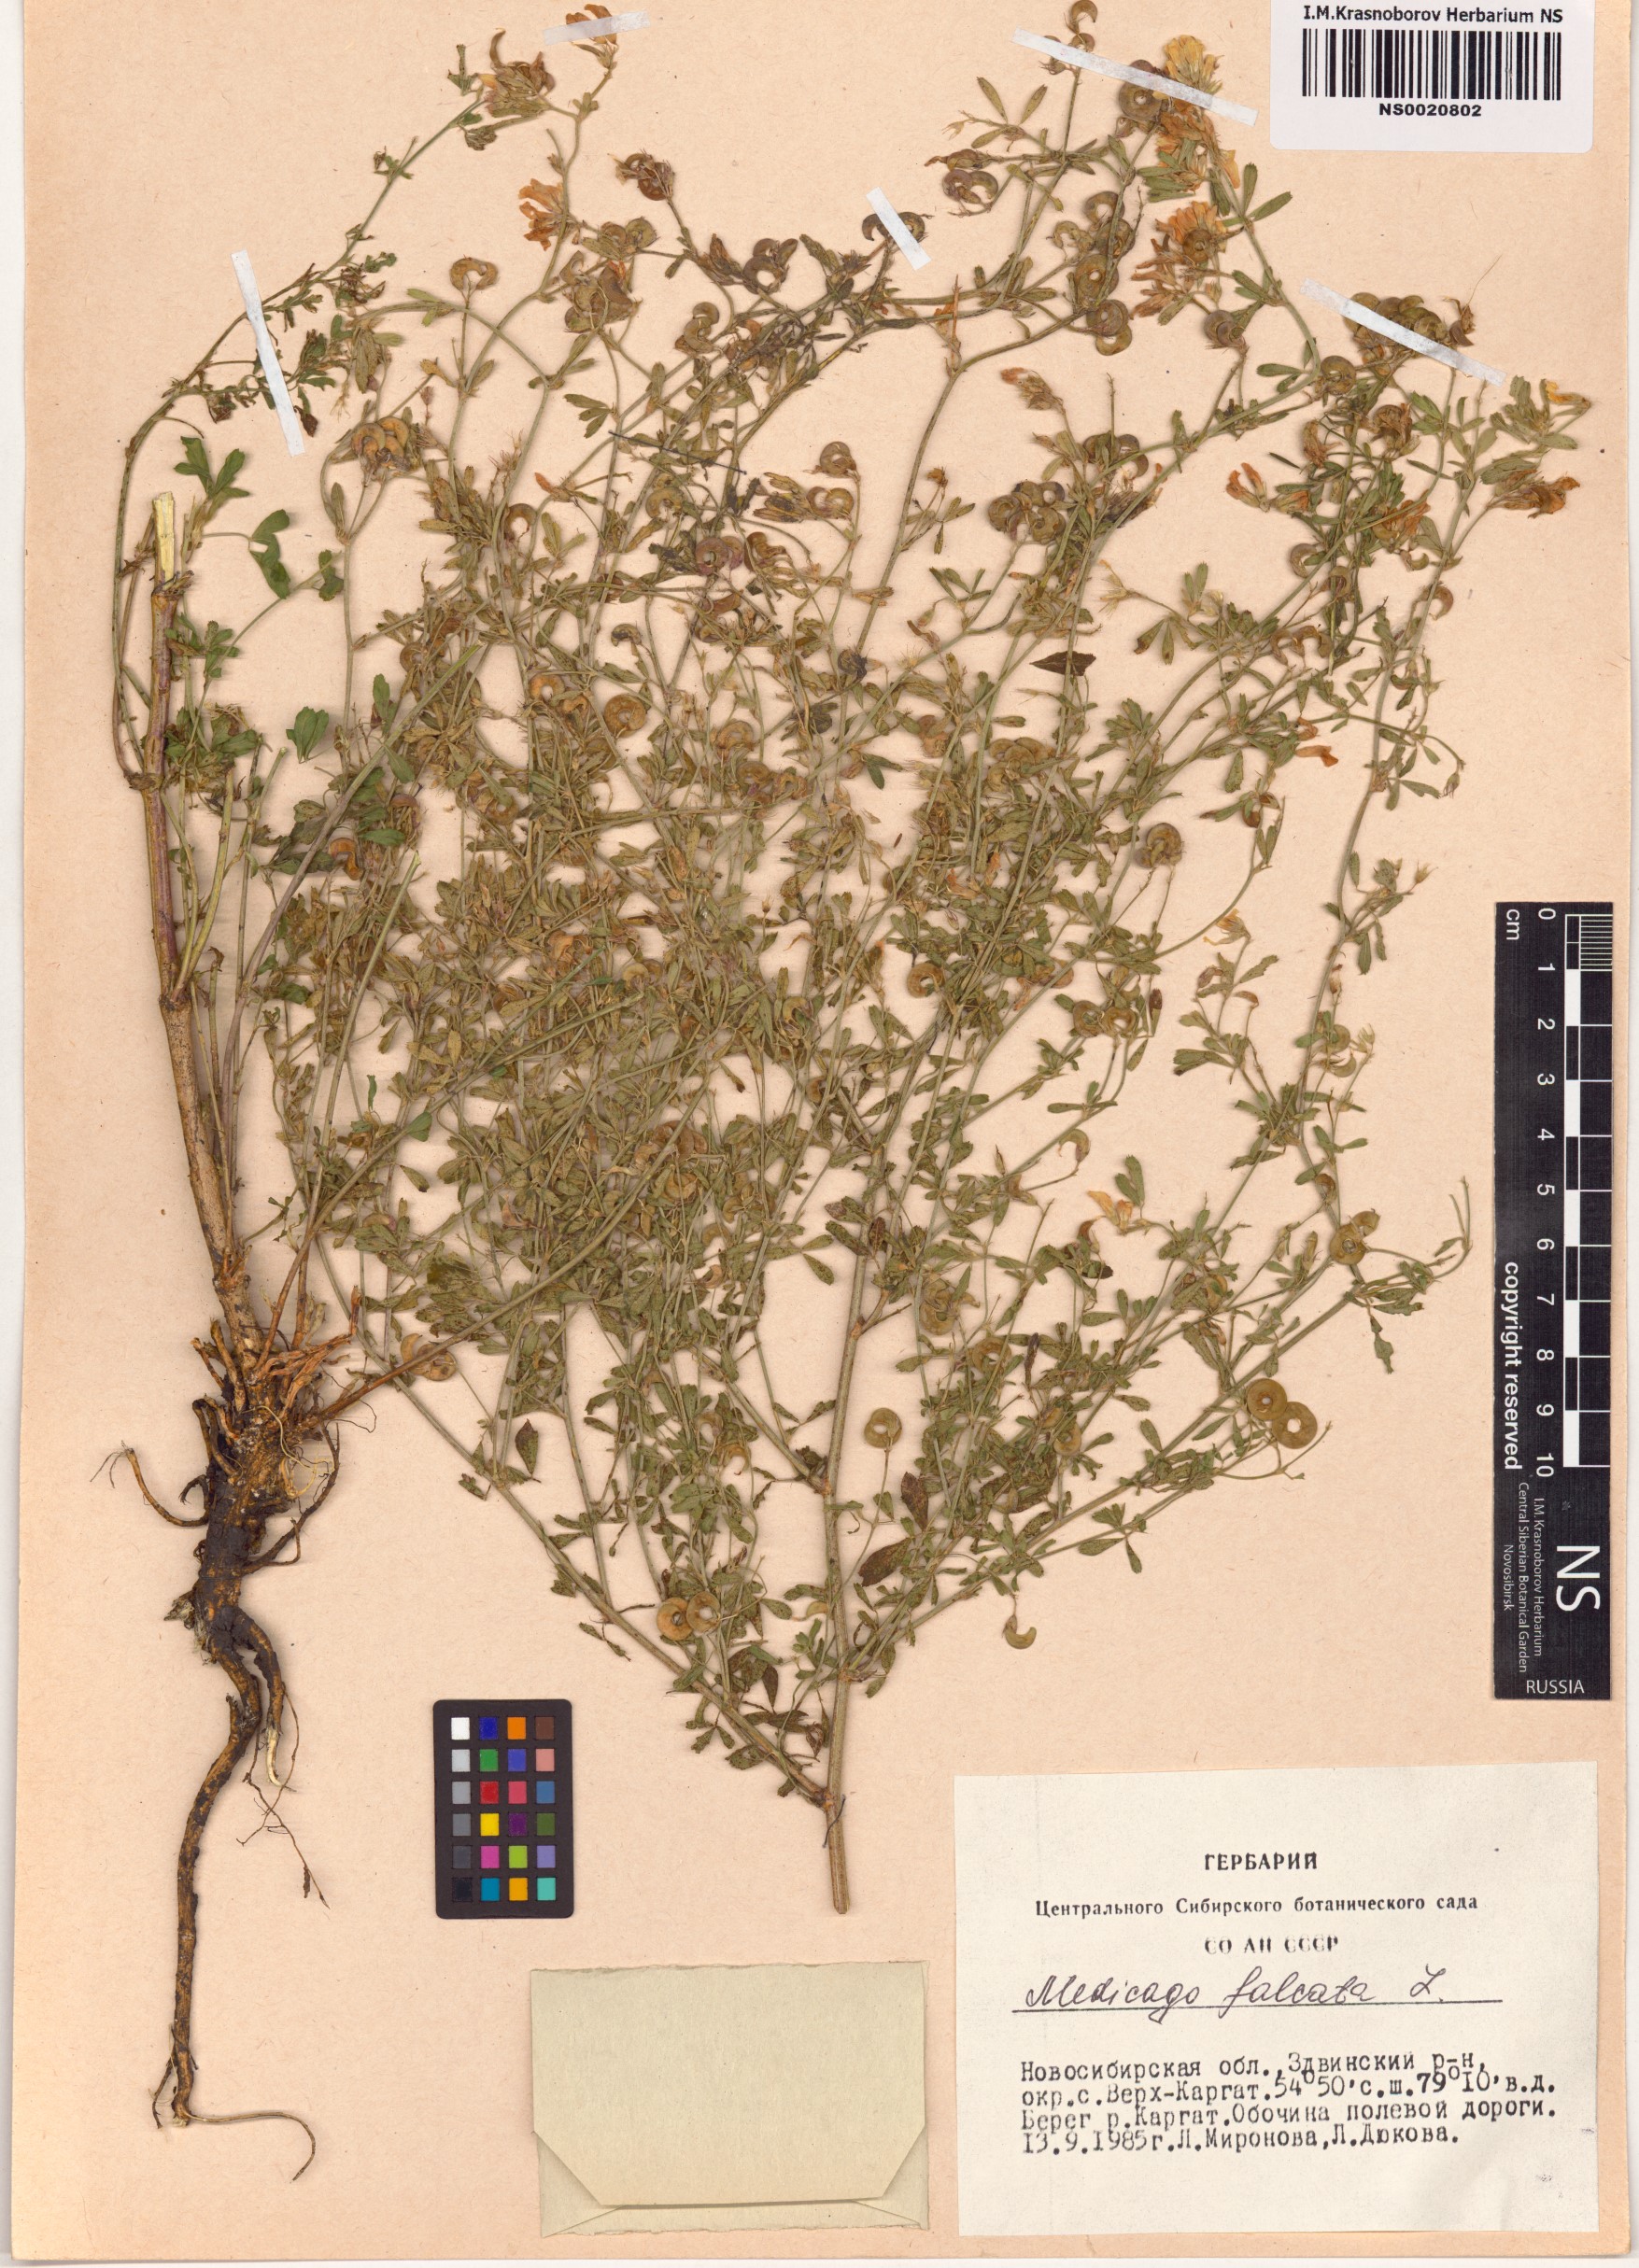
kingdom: Plantae
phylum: Tracheophyta
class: Magnoliopsida
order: Fabales
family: Fabaceae
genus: Medicago
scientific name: Medicago falcata
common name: Sickle medick
